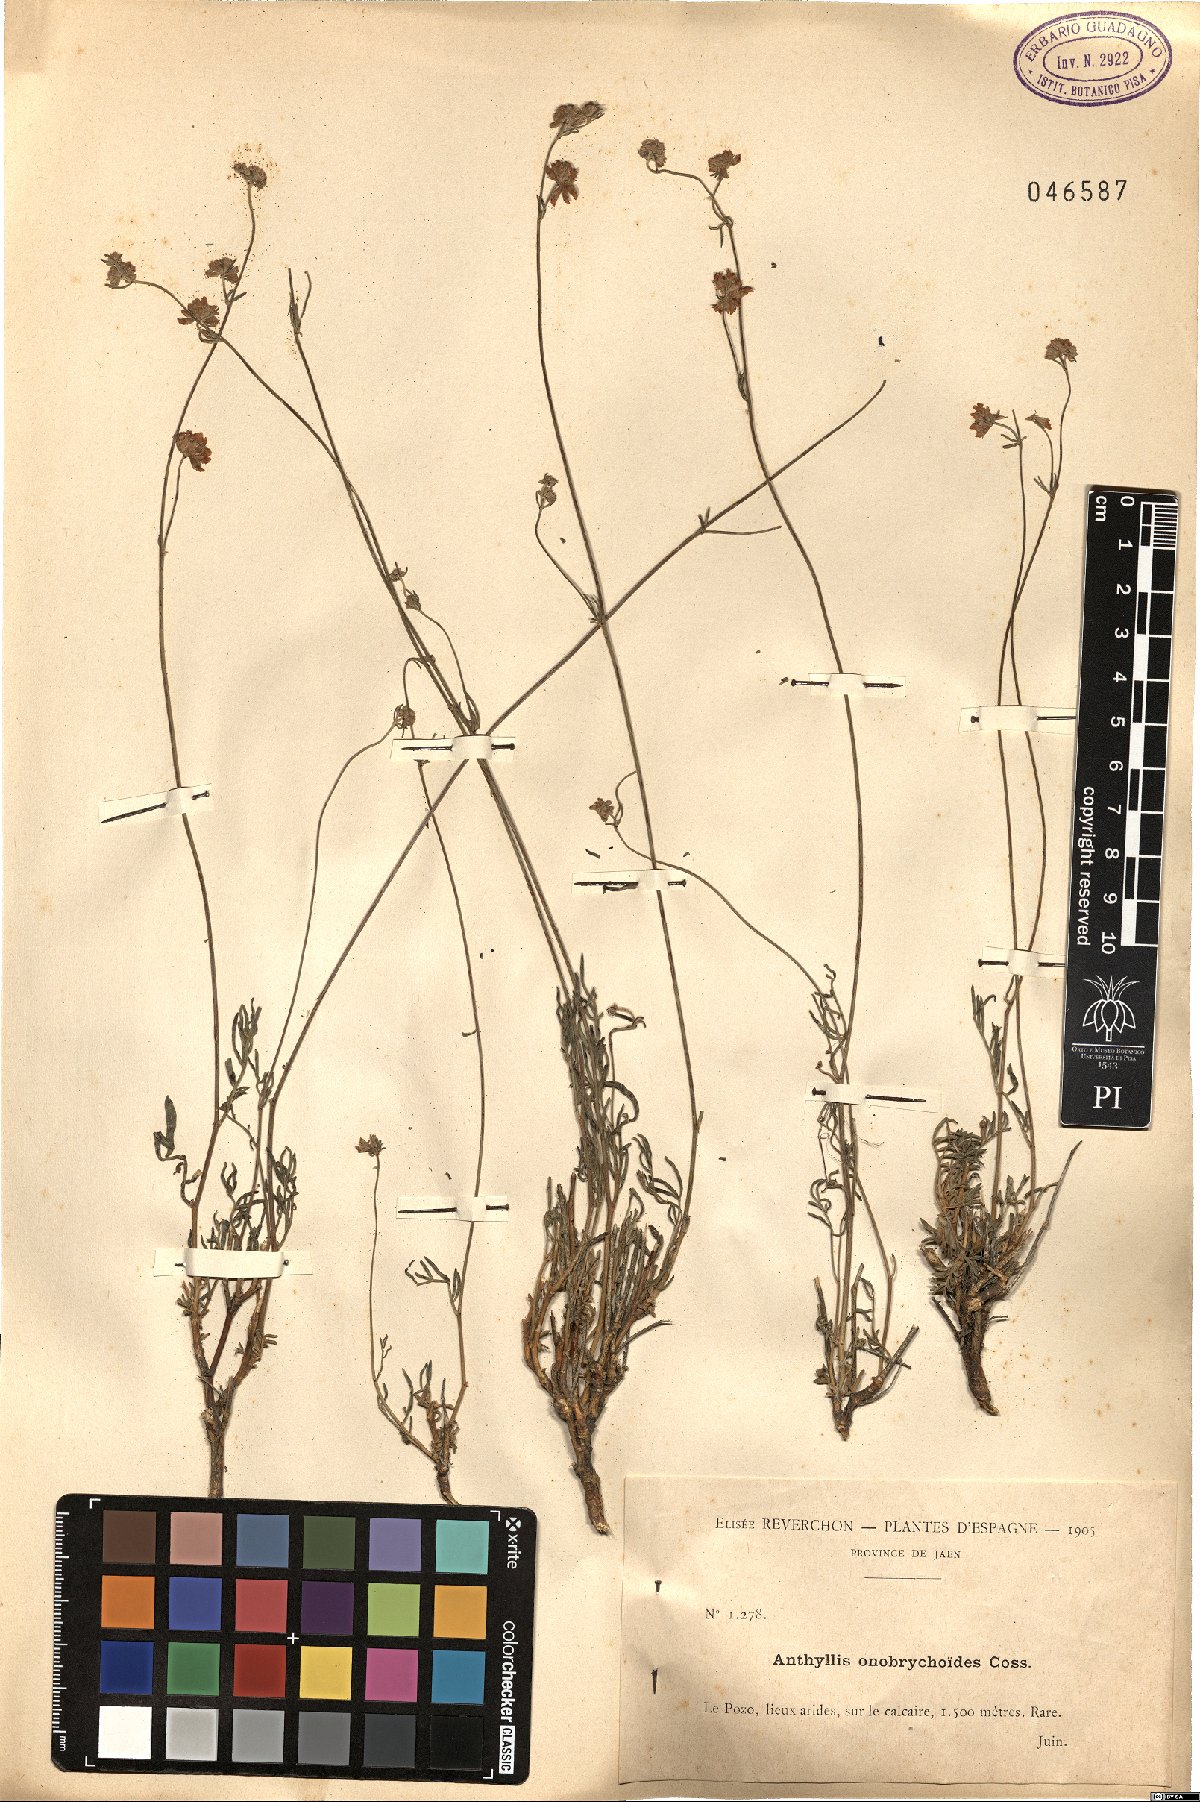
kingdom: Plantae
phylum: Tracheophyta
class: Magnoliopsida
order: Fabales
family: Fabaceae
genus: Anthyllis
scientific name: Anthyllis onobrychioides
